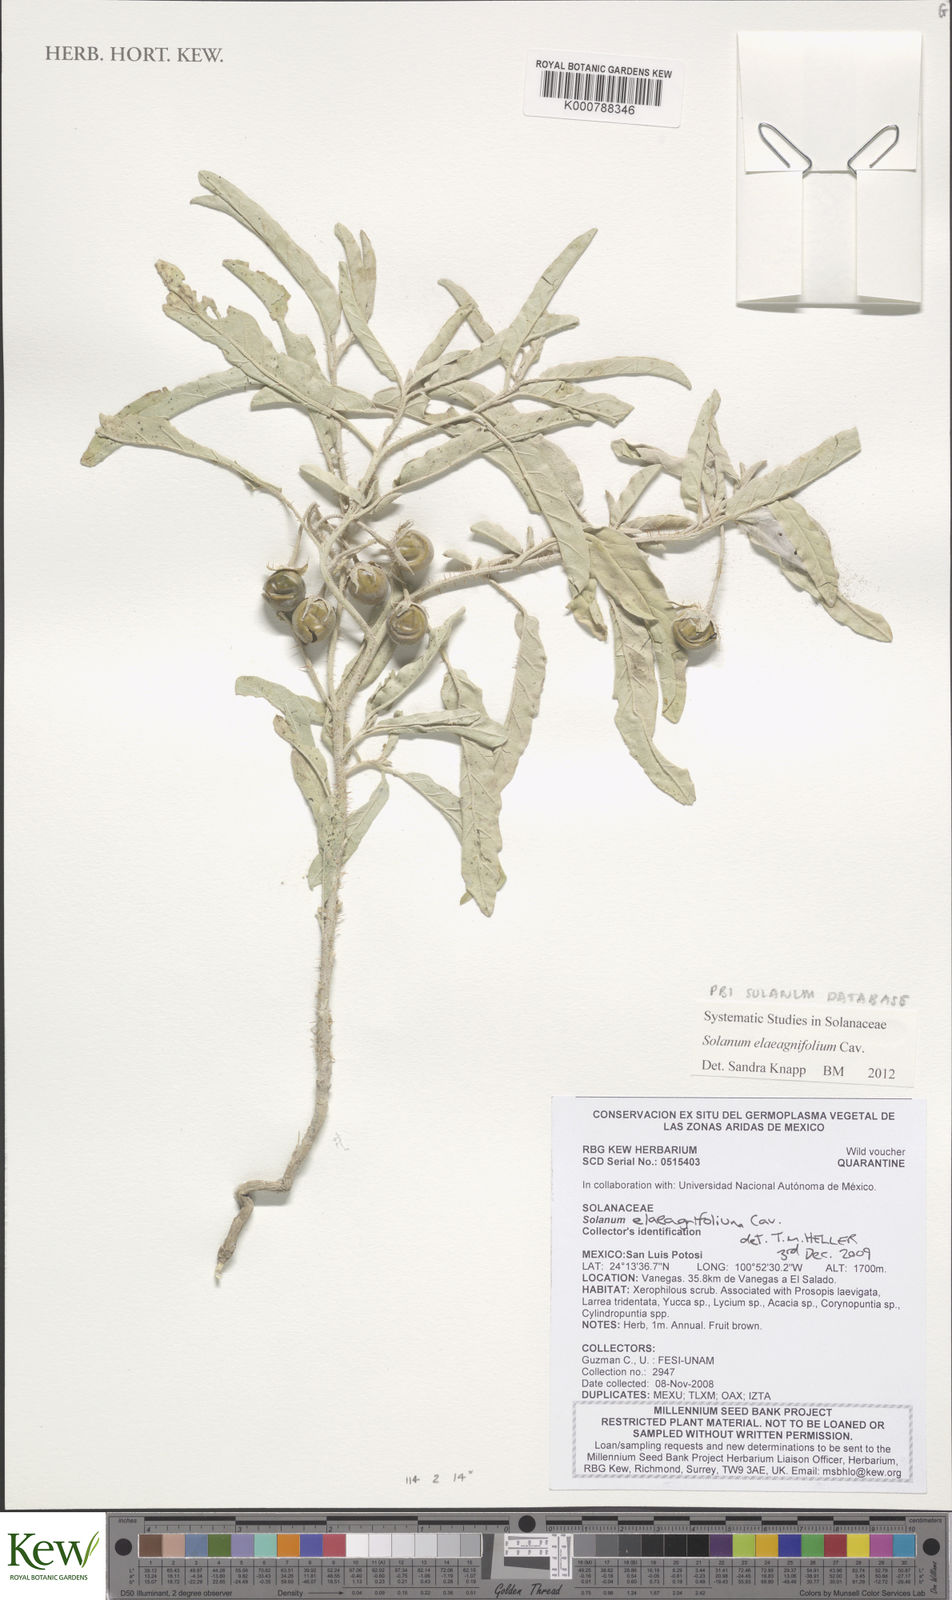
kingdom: Plantae
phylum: Tracheophyta
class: Magnoliopsida
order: Solanales
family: Solanaceae
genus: Solanum
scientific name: Solanum elaeagnifolium
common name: Silverleaf nightshade
